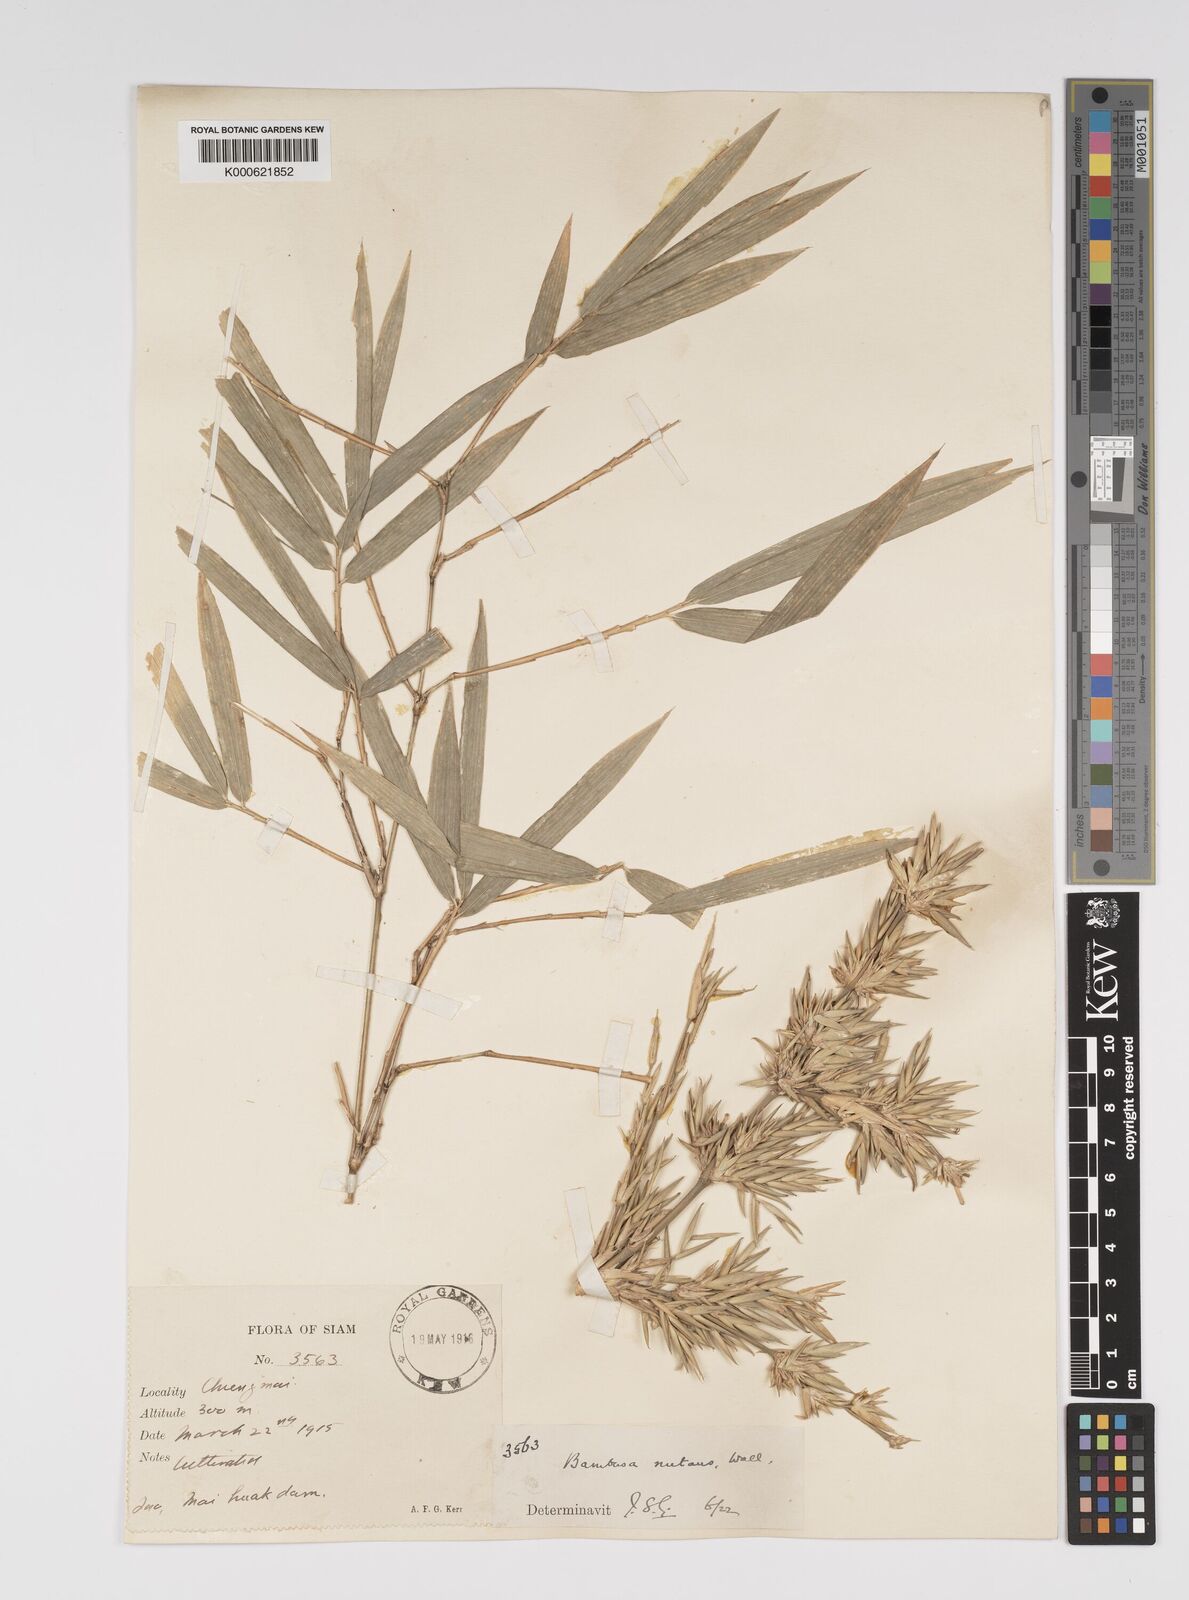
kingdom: Plantae
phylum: Tracheophyta
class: Liliopsida
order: Poales
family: Poaceae
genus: Bambusa
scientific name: Bambusa nutans
